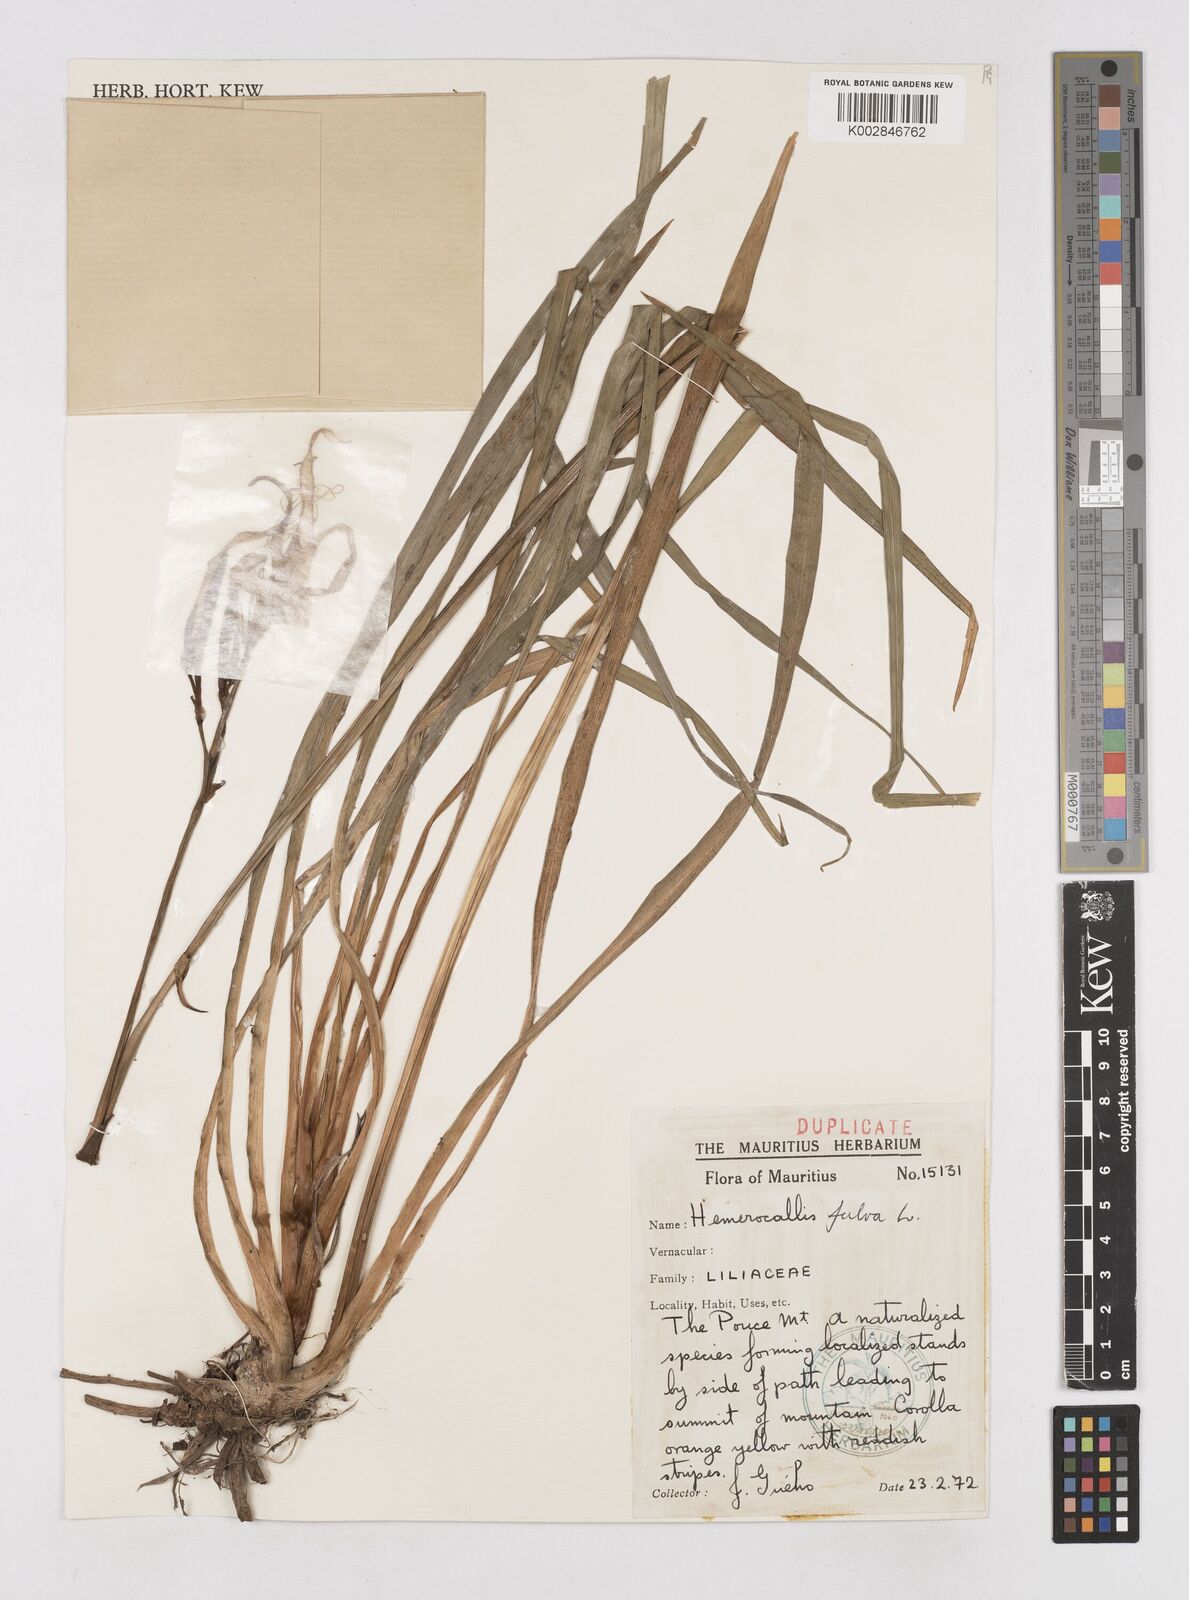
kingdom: Plantae
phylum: Tracheophyta
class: Liliopsida
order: Asparagales
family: Asphodelaceae
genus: Hemerocallis
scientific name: Hemerocallis fulva
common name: Orange day-lily
